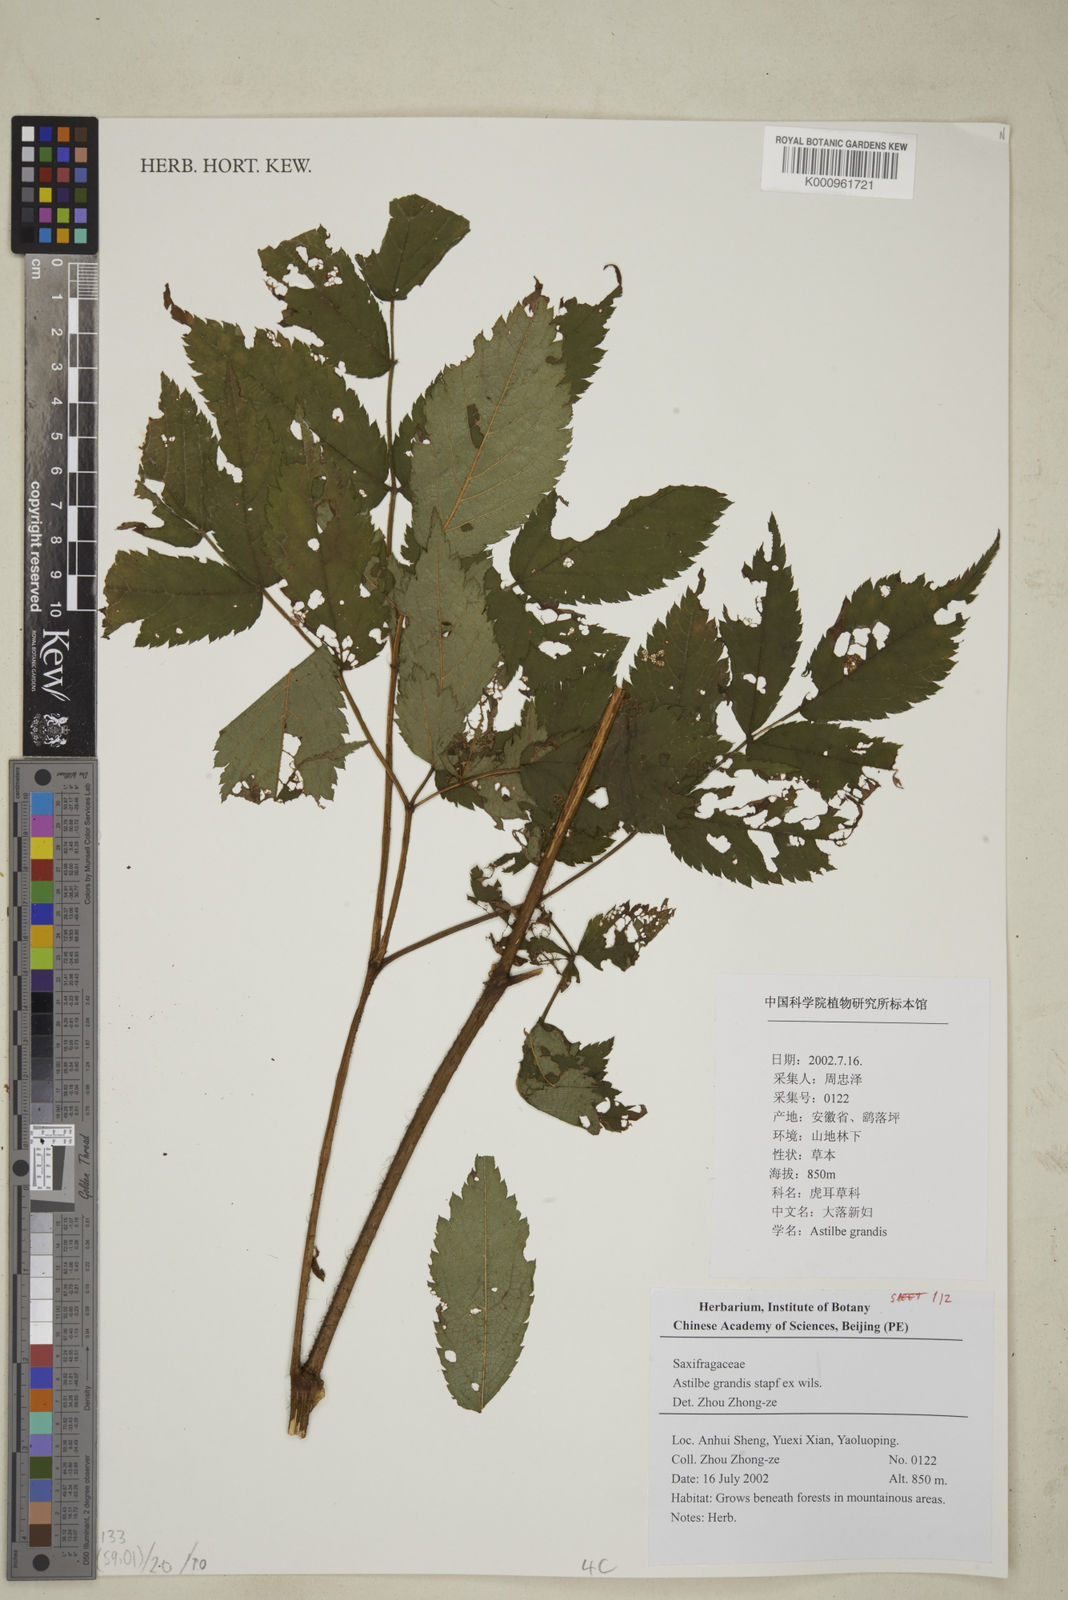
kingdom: Plantae
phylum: Tracheophyta
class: Magnoliopsida
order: Saxifragales
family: Saxifragaceae
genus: Astilbe
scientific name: Astilbe grandis
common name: Korean astilbe
